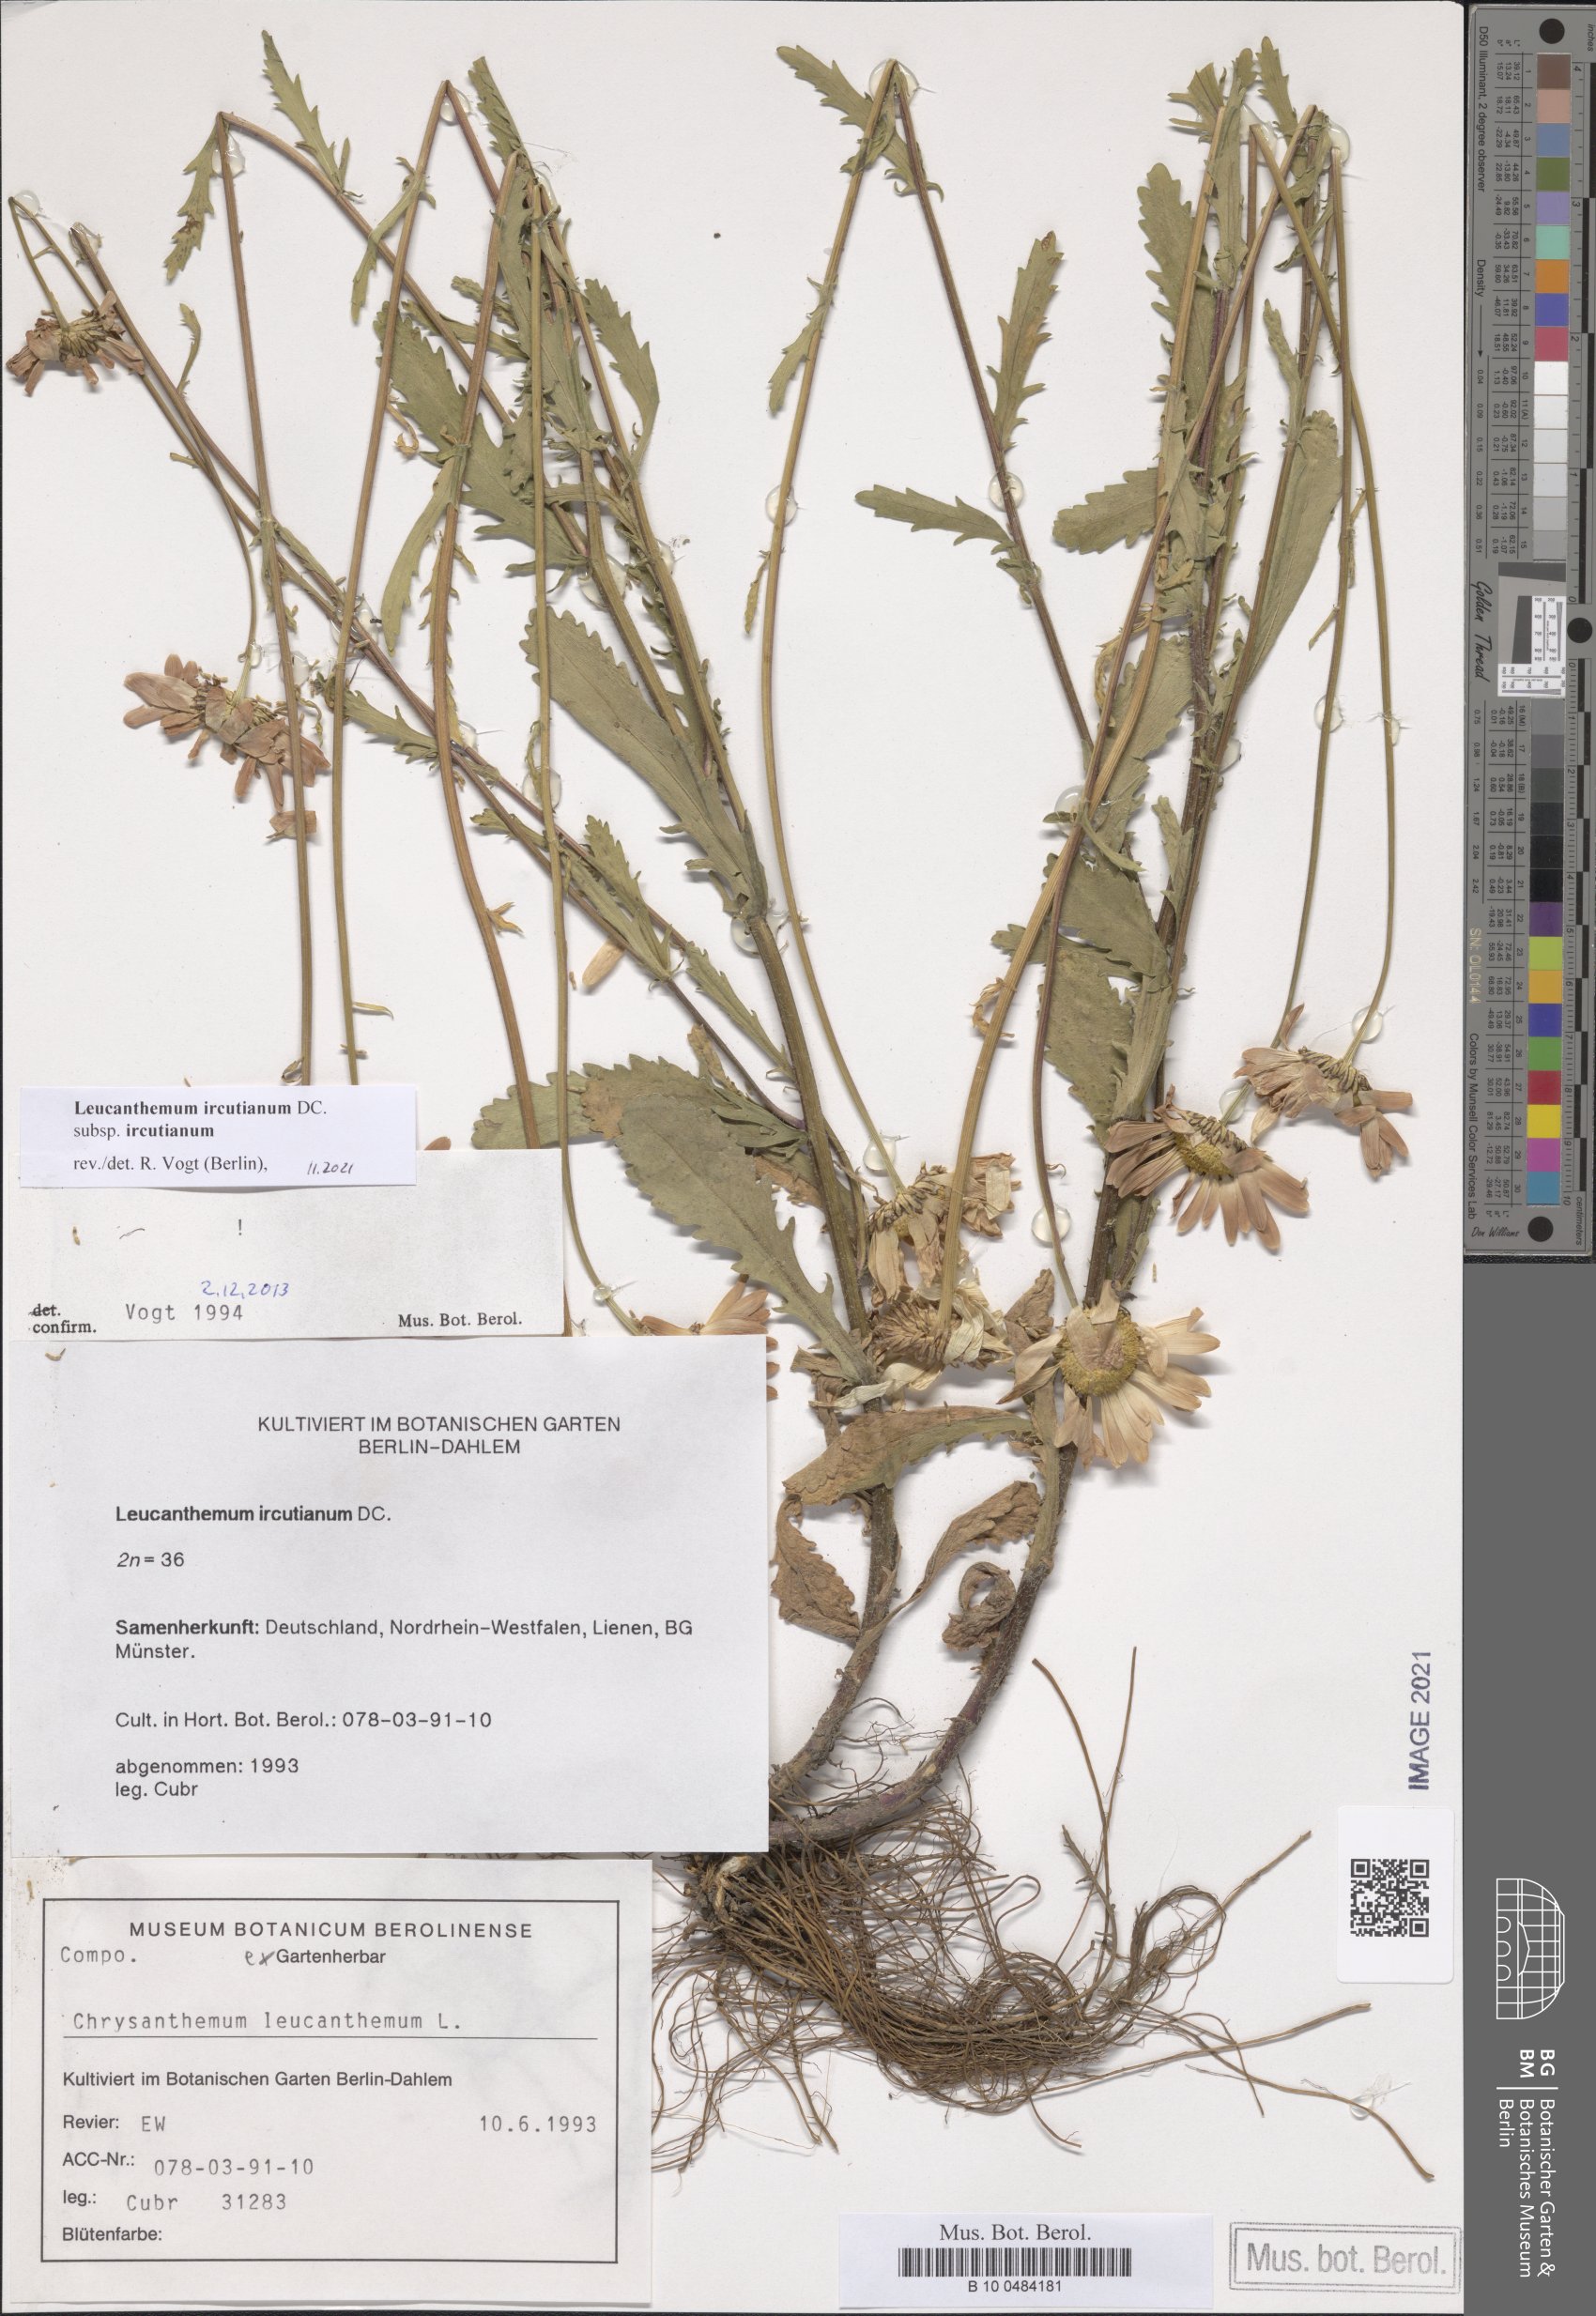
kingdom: Plantae
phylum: Tracheophyta
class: Magnoliopsida
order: Asterales
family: Asteraceae
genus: Leucanthemum
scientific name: Leucanthemum ircutianum
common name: Daisy
